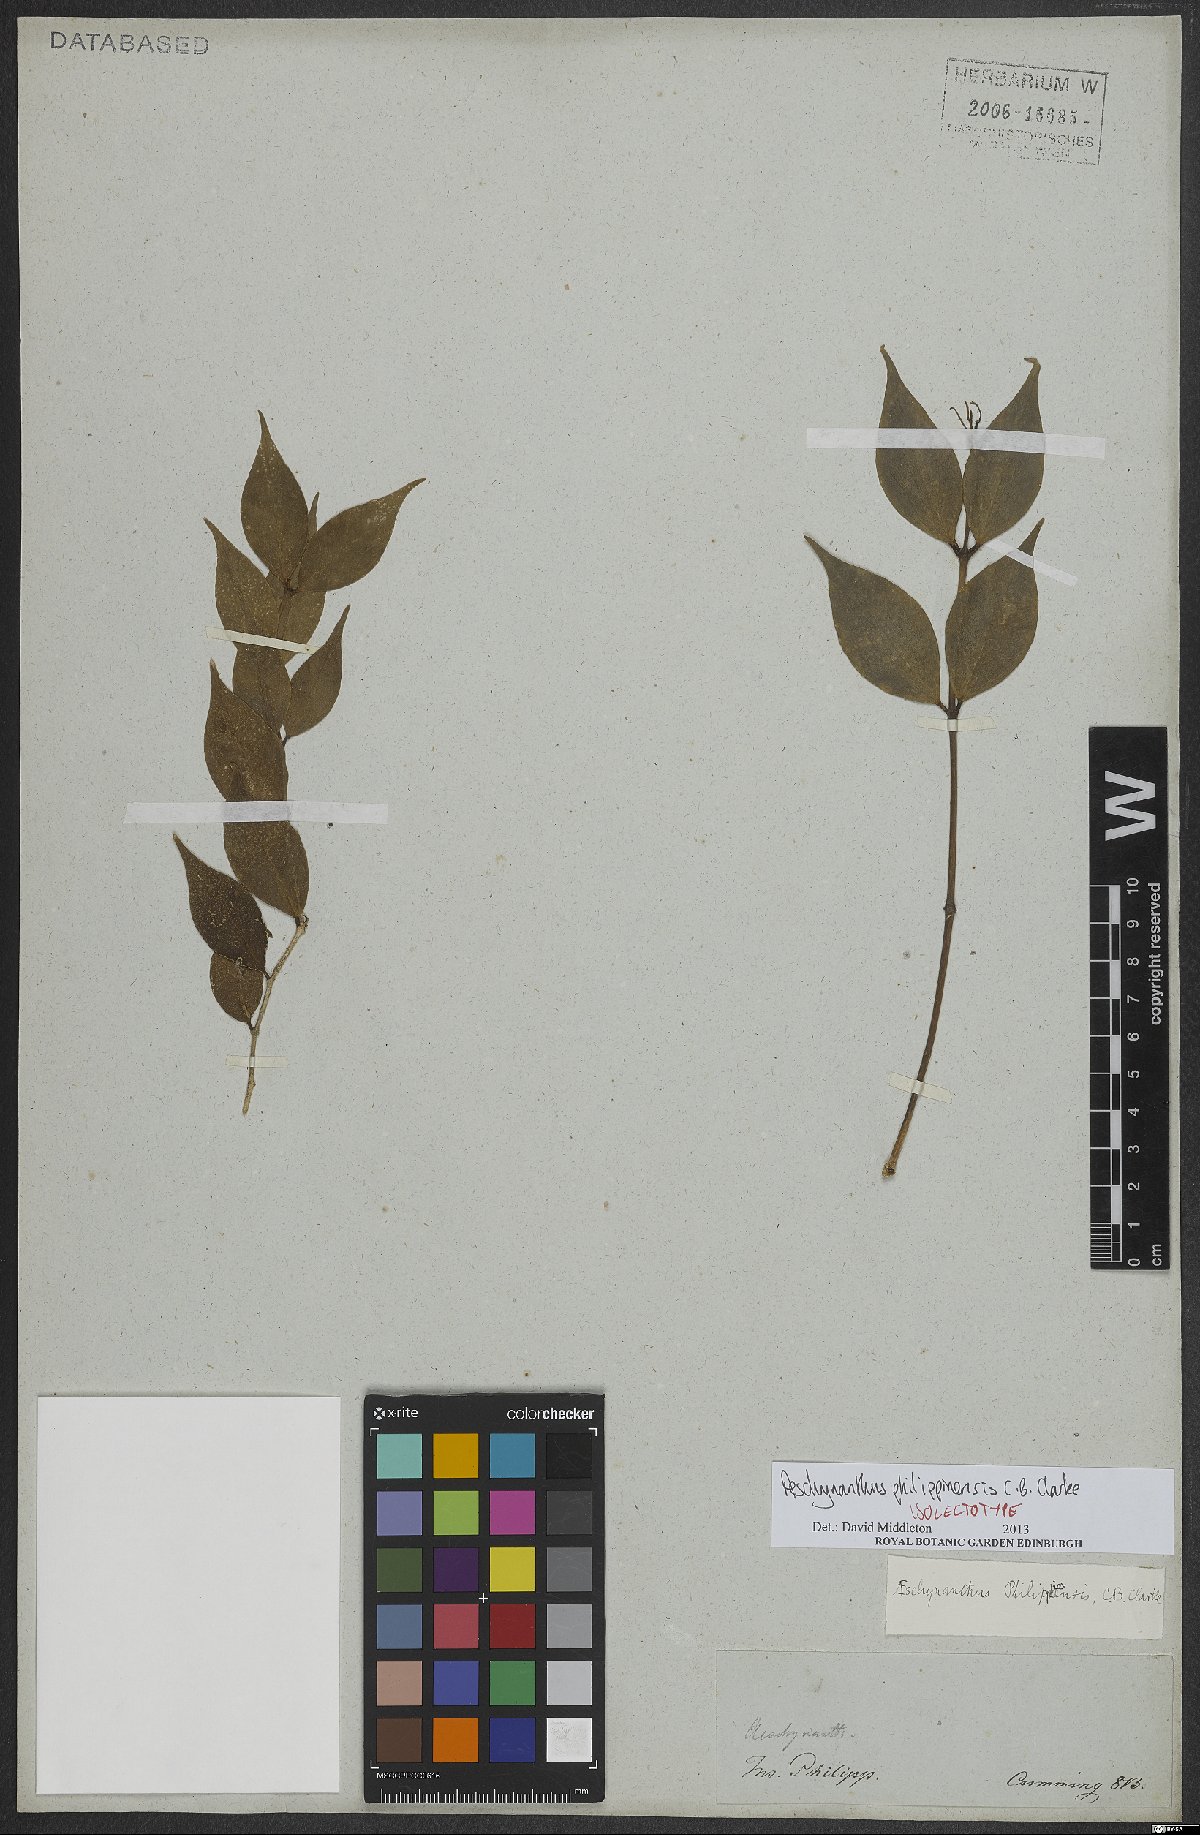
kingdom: Plantae
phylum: Tracheophyta
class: Magnoliopsida
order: Lamiales
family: Gesneriaceae
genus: Aeschynanthus
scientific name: Aeschynanthus philippinensis
